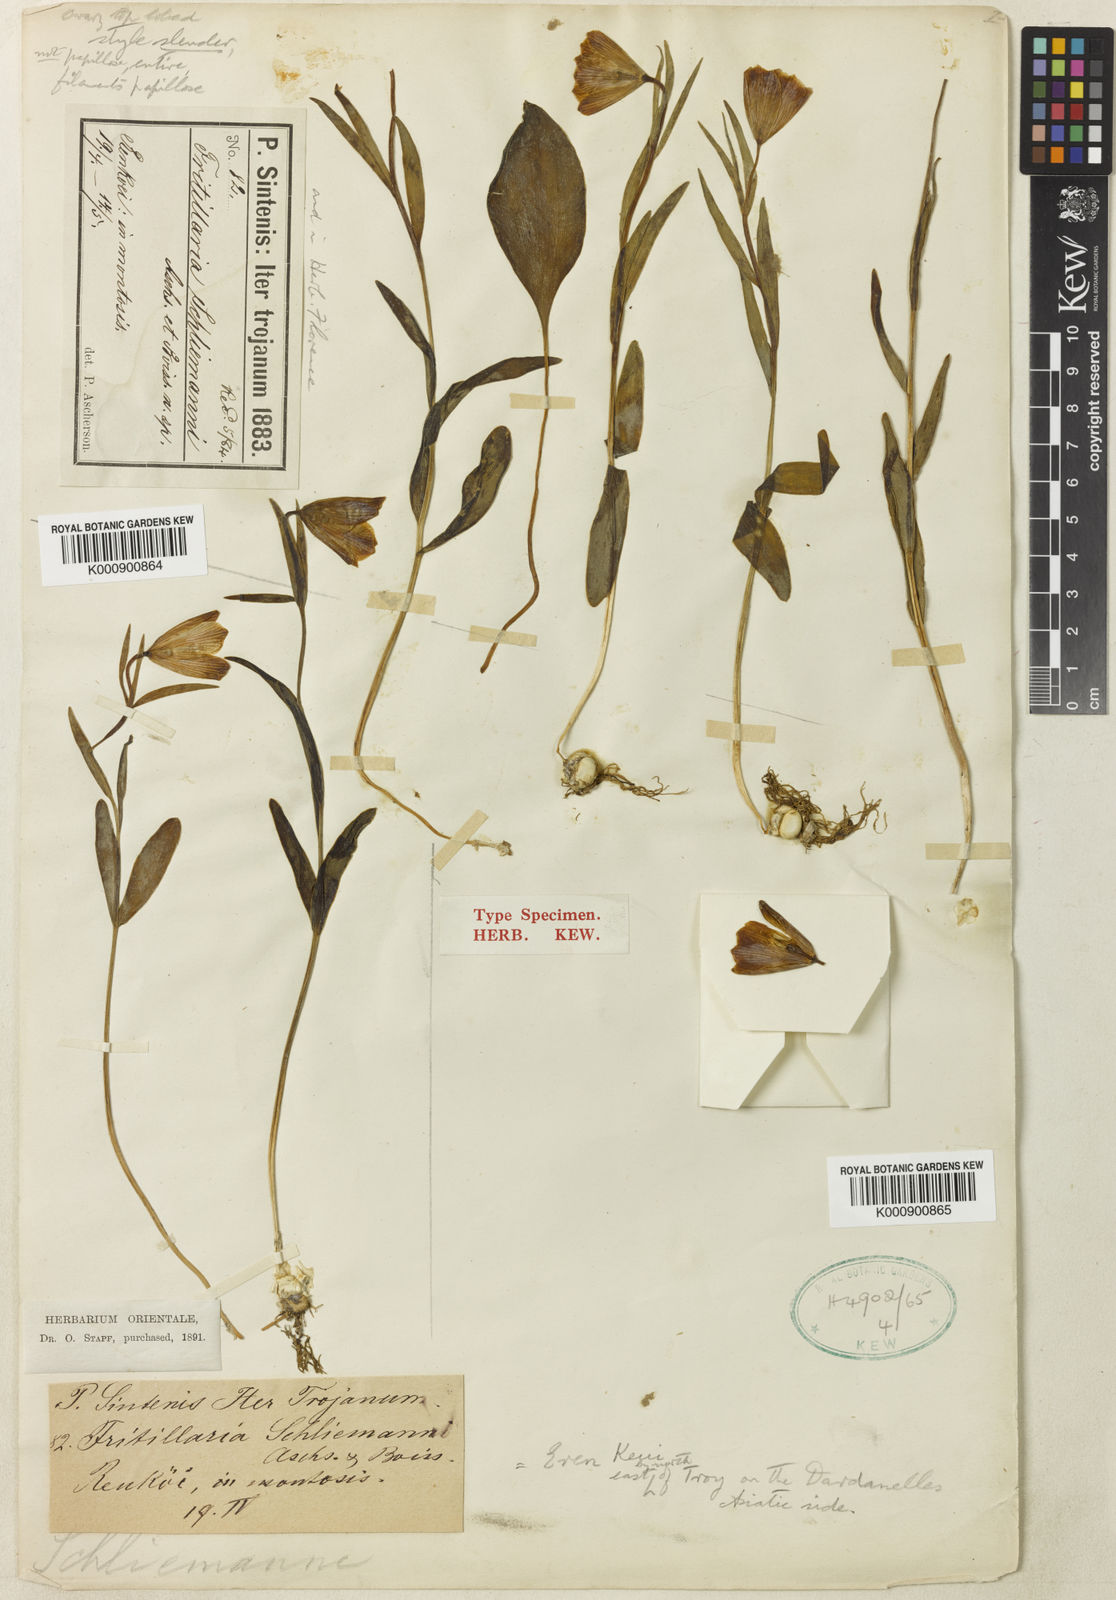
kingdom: Plantae
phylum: Tracheophyta
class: Liliopsida
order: Liliales
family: Liliaceae
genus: Fritillaria
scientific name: Fritillaria
